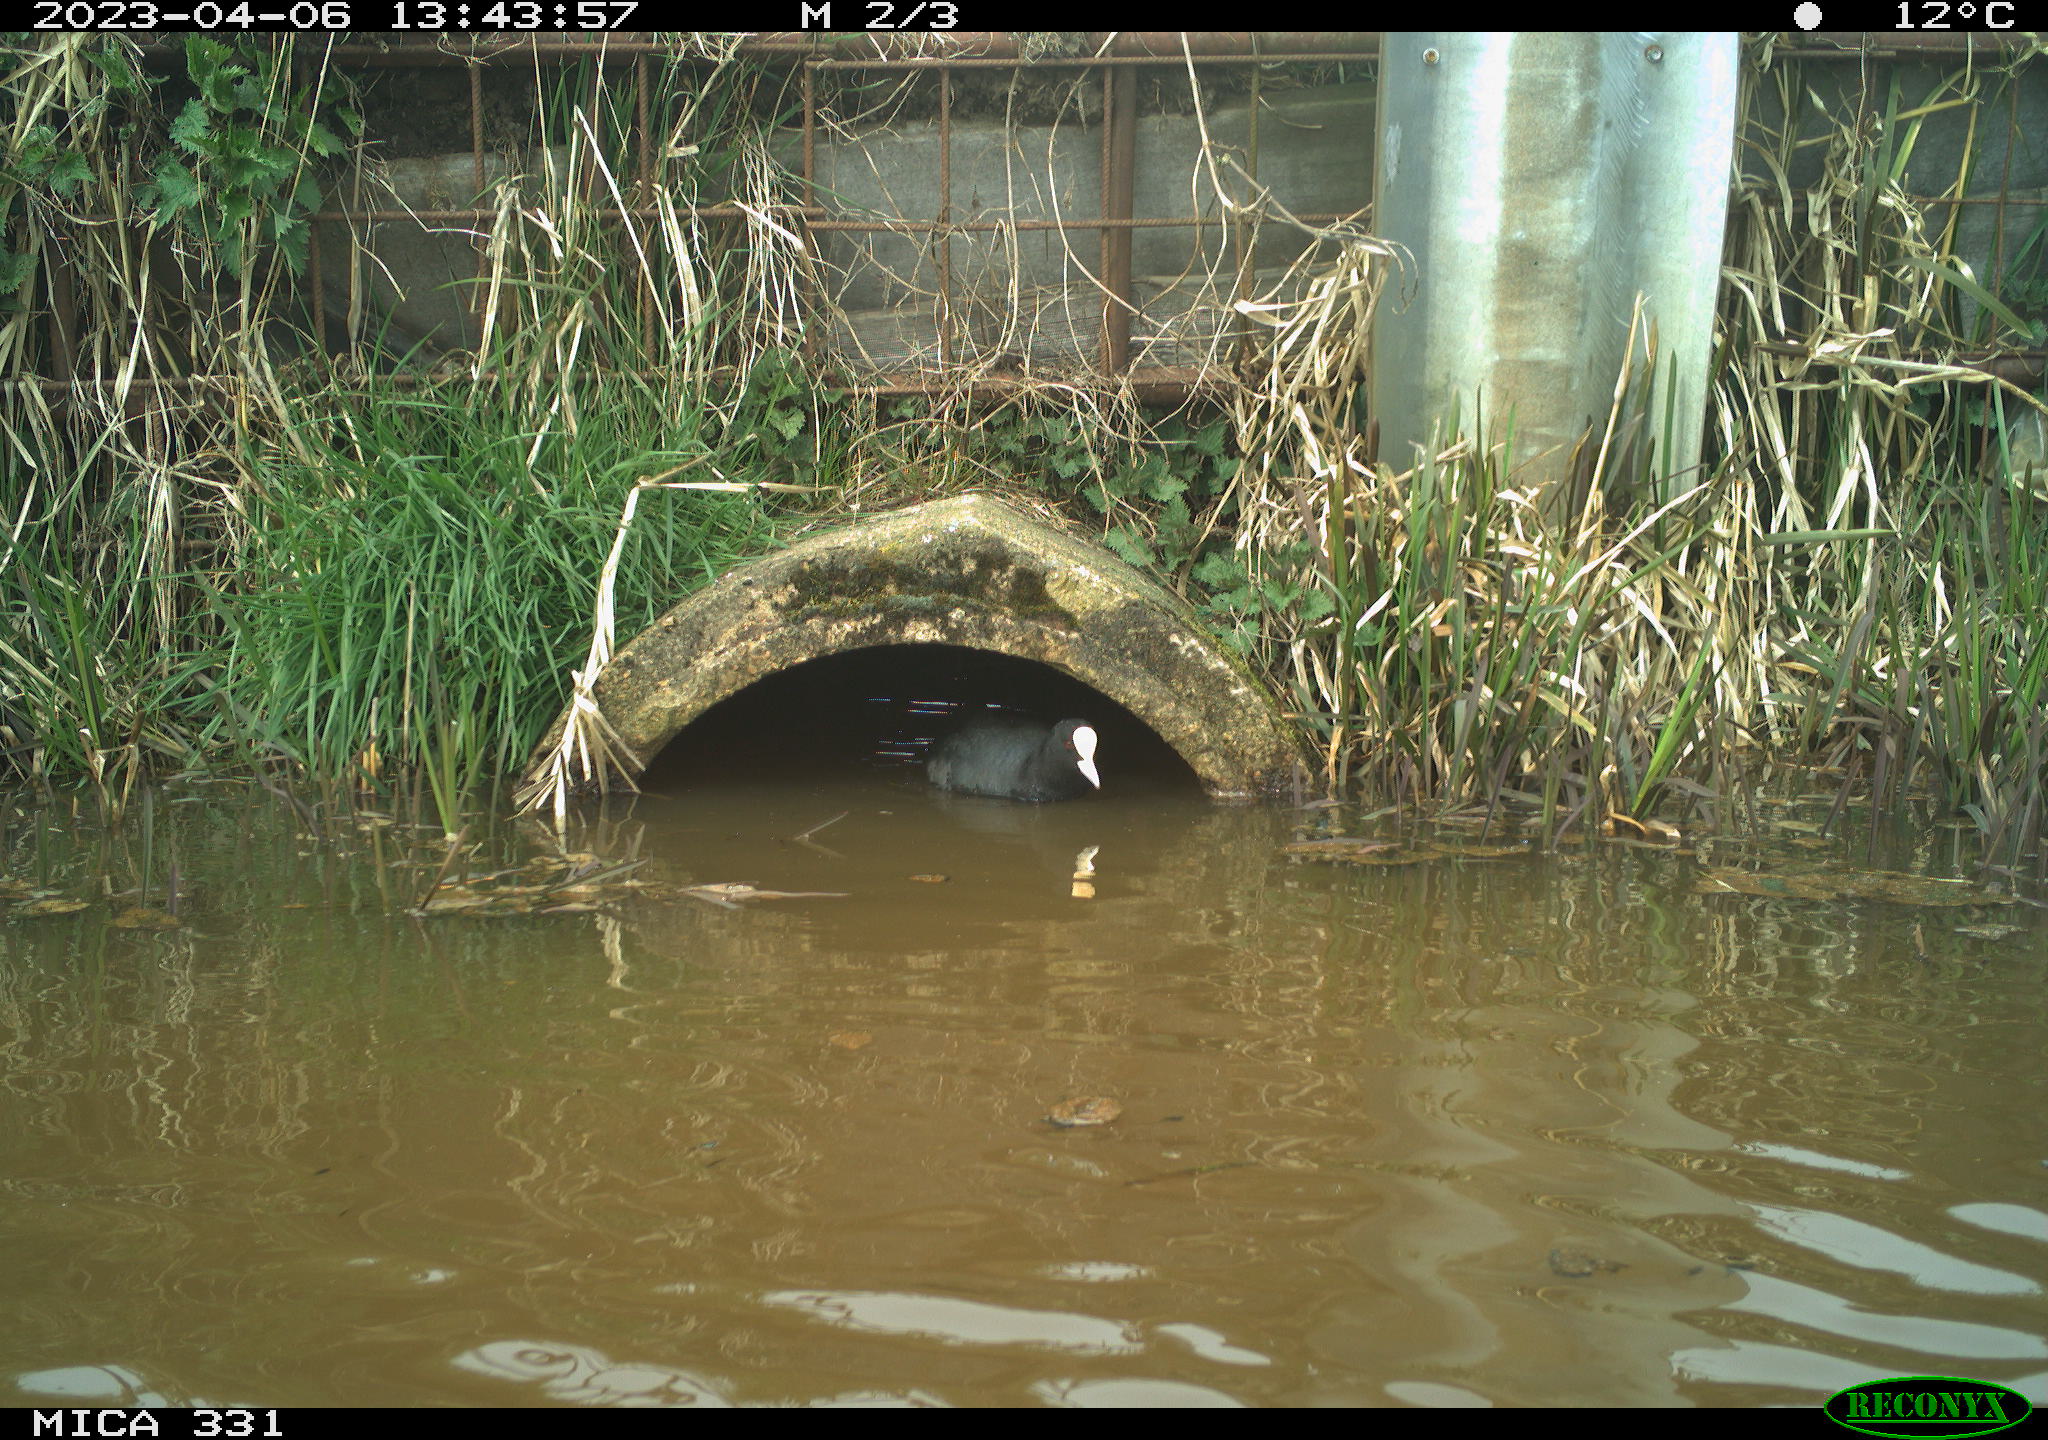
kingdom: Animalia
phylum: Chordata
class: Aves
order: Gruiformes
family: Rallidae
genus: Gallinula
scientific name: Gallinula chloropus
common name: Common moorhen
